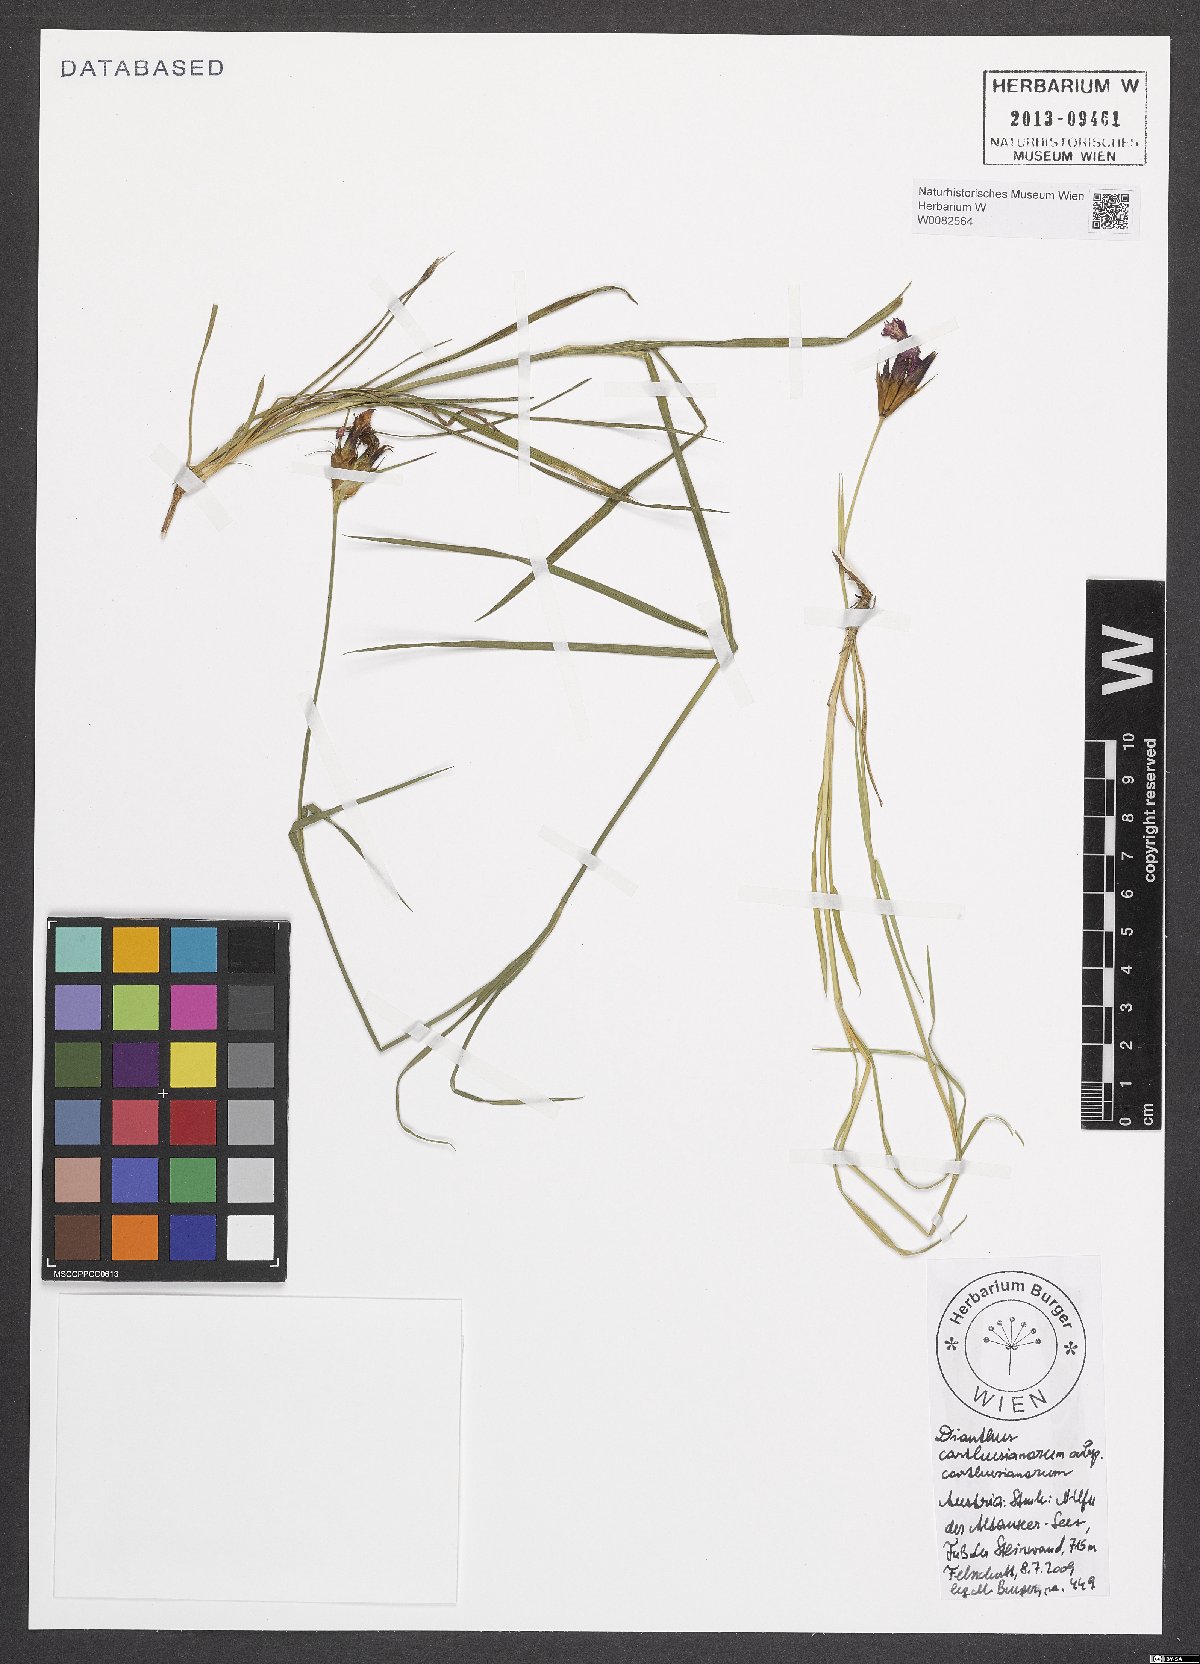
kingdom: Plantae
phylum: Tracheophyta
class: Magnoliopsida
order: Caryophyllales
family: Caryophyllaceae
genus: Dianthus
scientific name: Dianthus carthusianorum
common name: Carthusian pink
